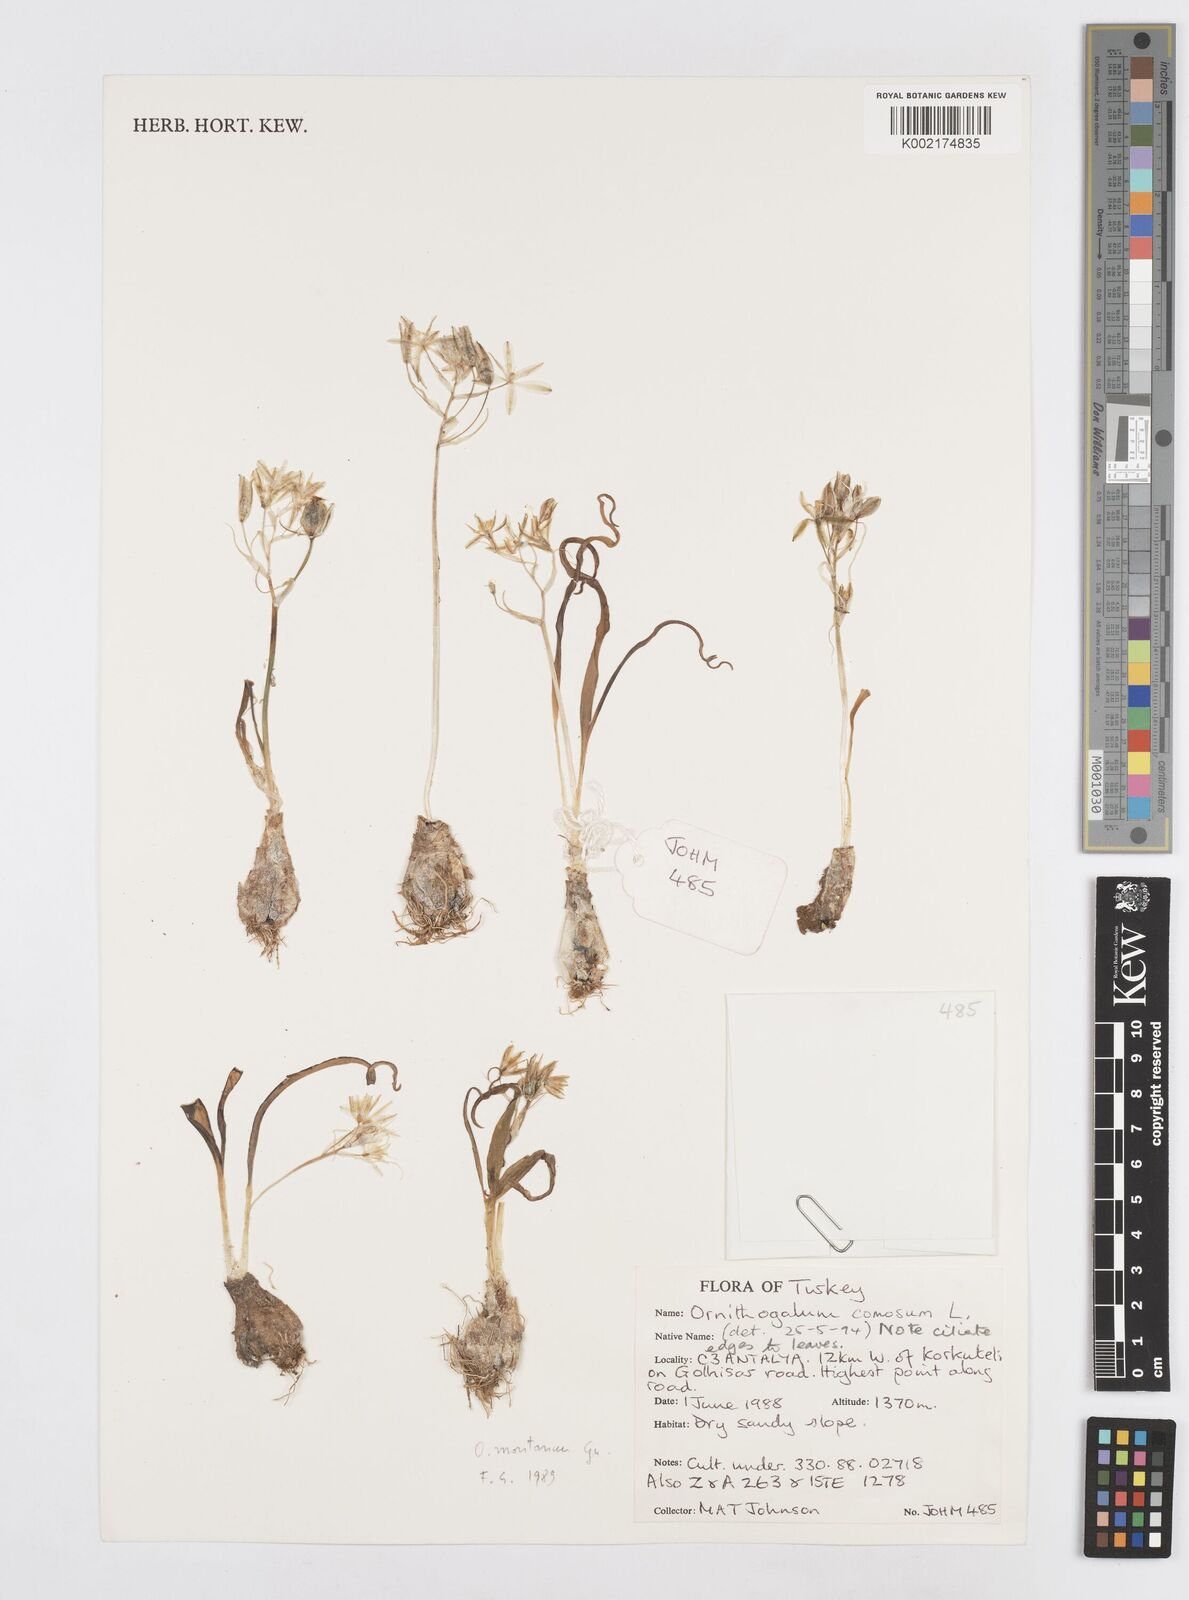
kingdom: Plantae
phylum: Tracheophyta
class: Liliopsida
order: Asparagales
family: Asparagaceae
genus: Ornithogalum
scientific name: Ornithogalum comosum
